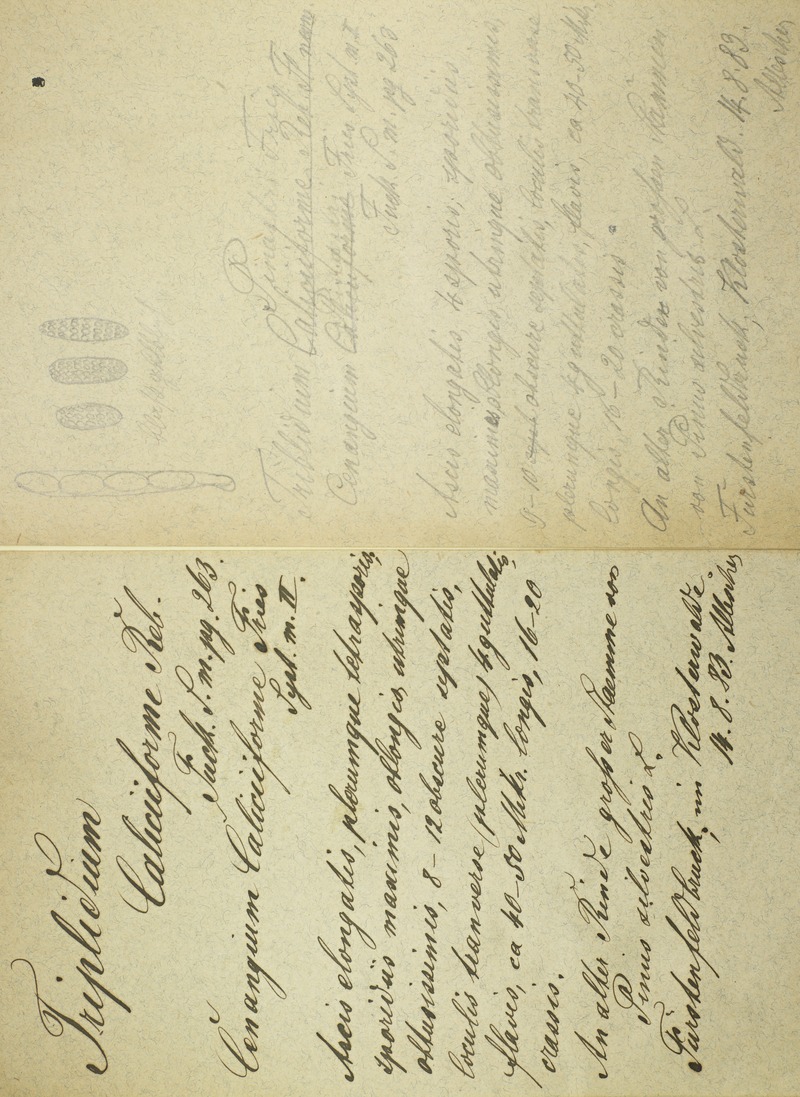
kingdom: Fungi
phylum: Ascomycota
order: Triblidiales
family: Triblidiaceae
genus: Triblidium
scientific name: Triblidium caliciiforme
